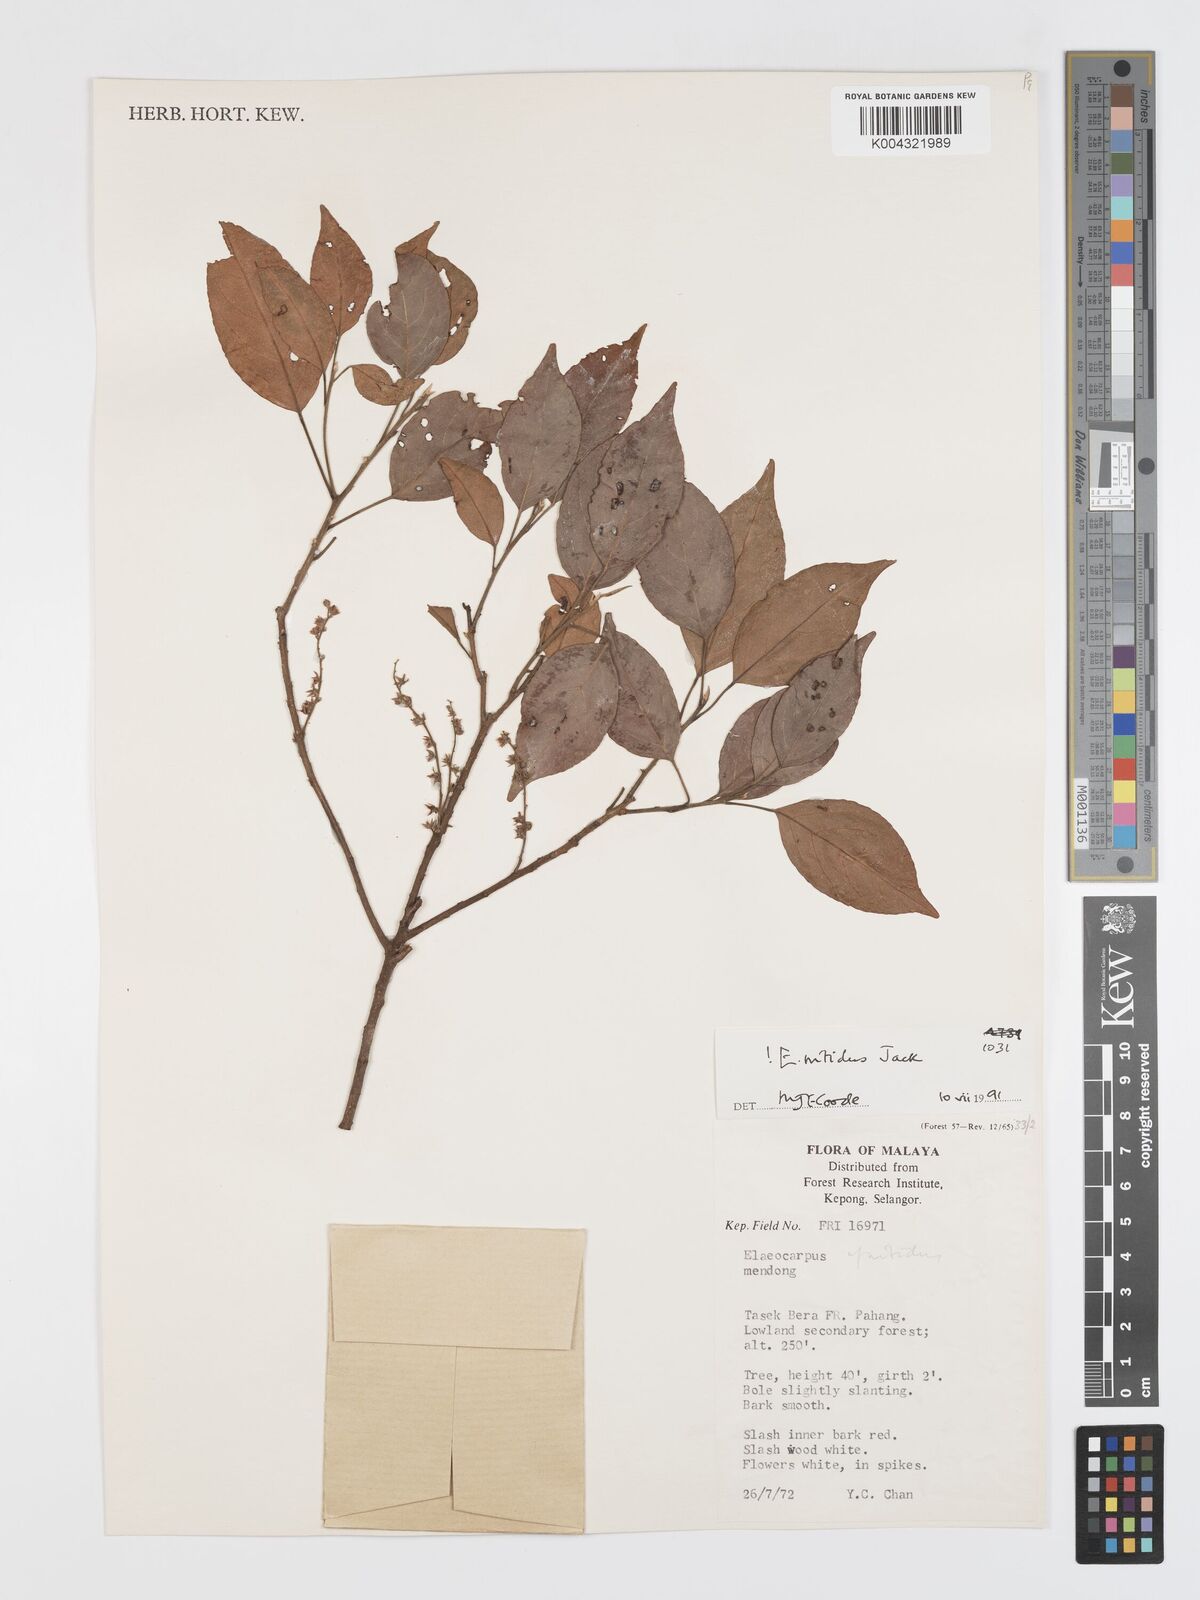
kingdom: Plantae
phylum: Tracheophyta
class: Magnoliopsida
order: Oxalidales
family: Elaeocarpaceae
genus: Elaeocarpus
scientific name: Elaeocarpus nitidus
